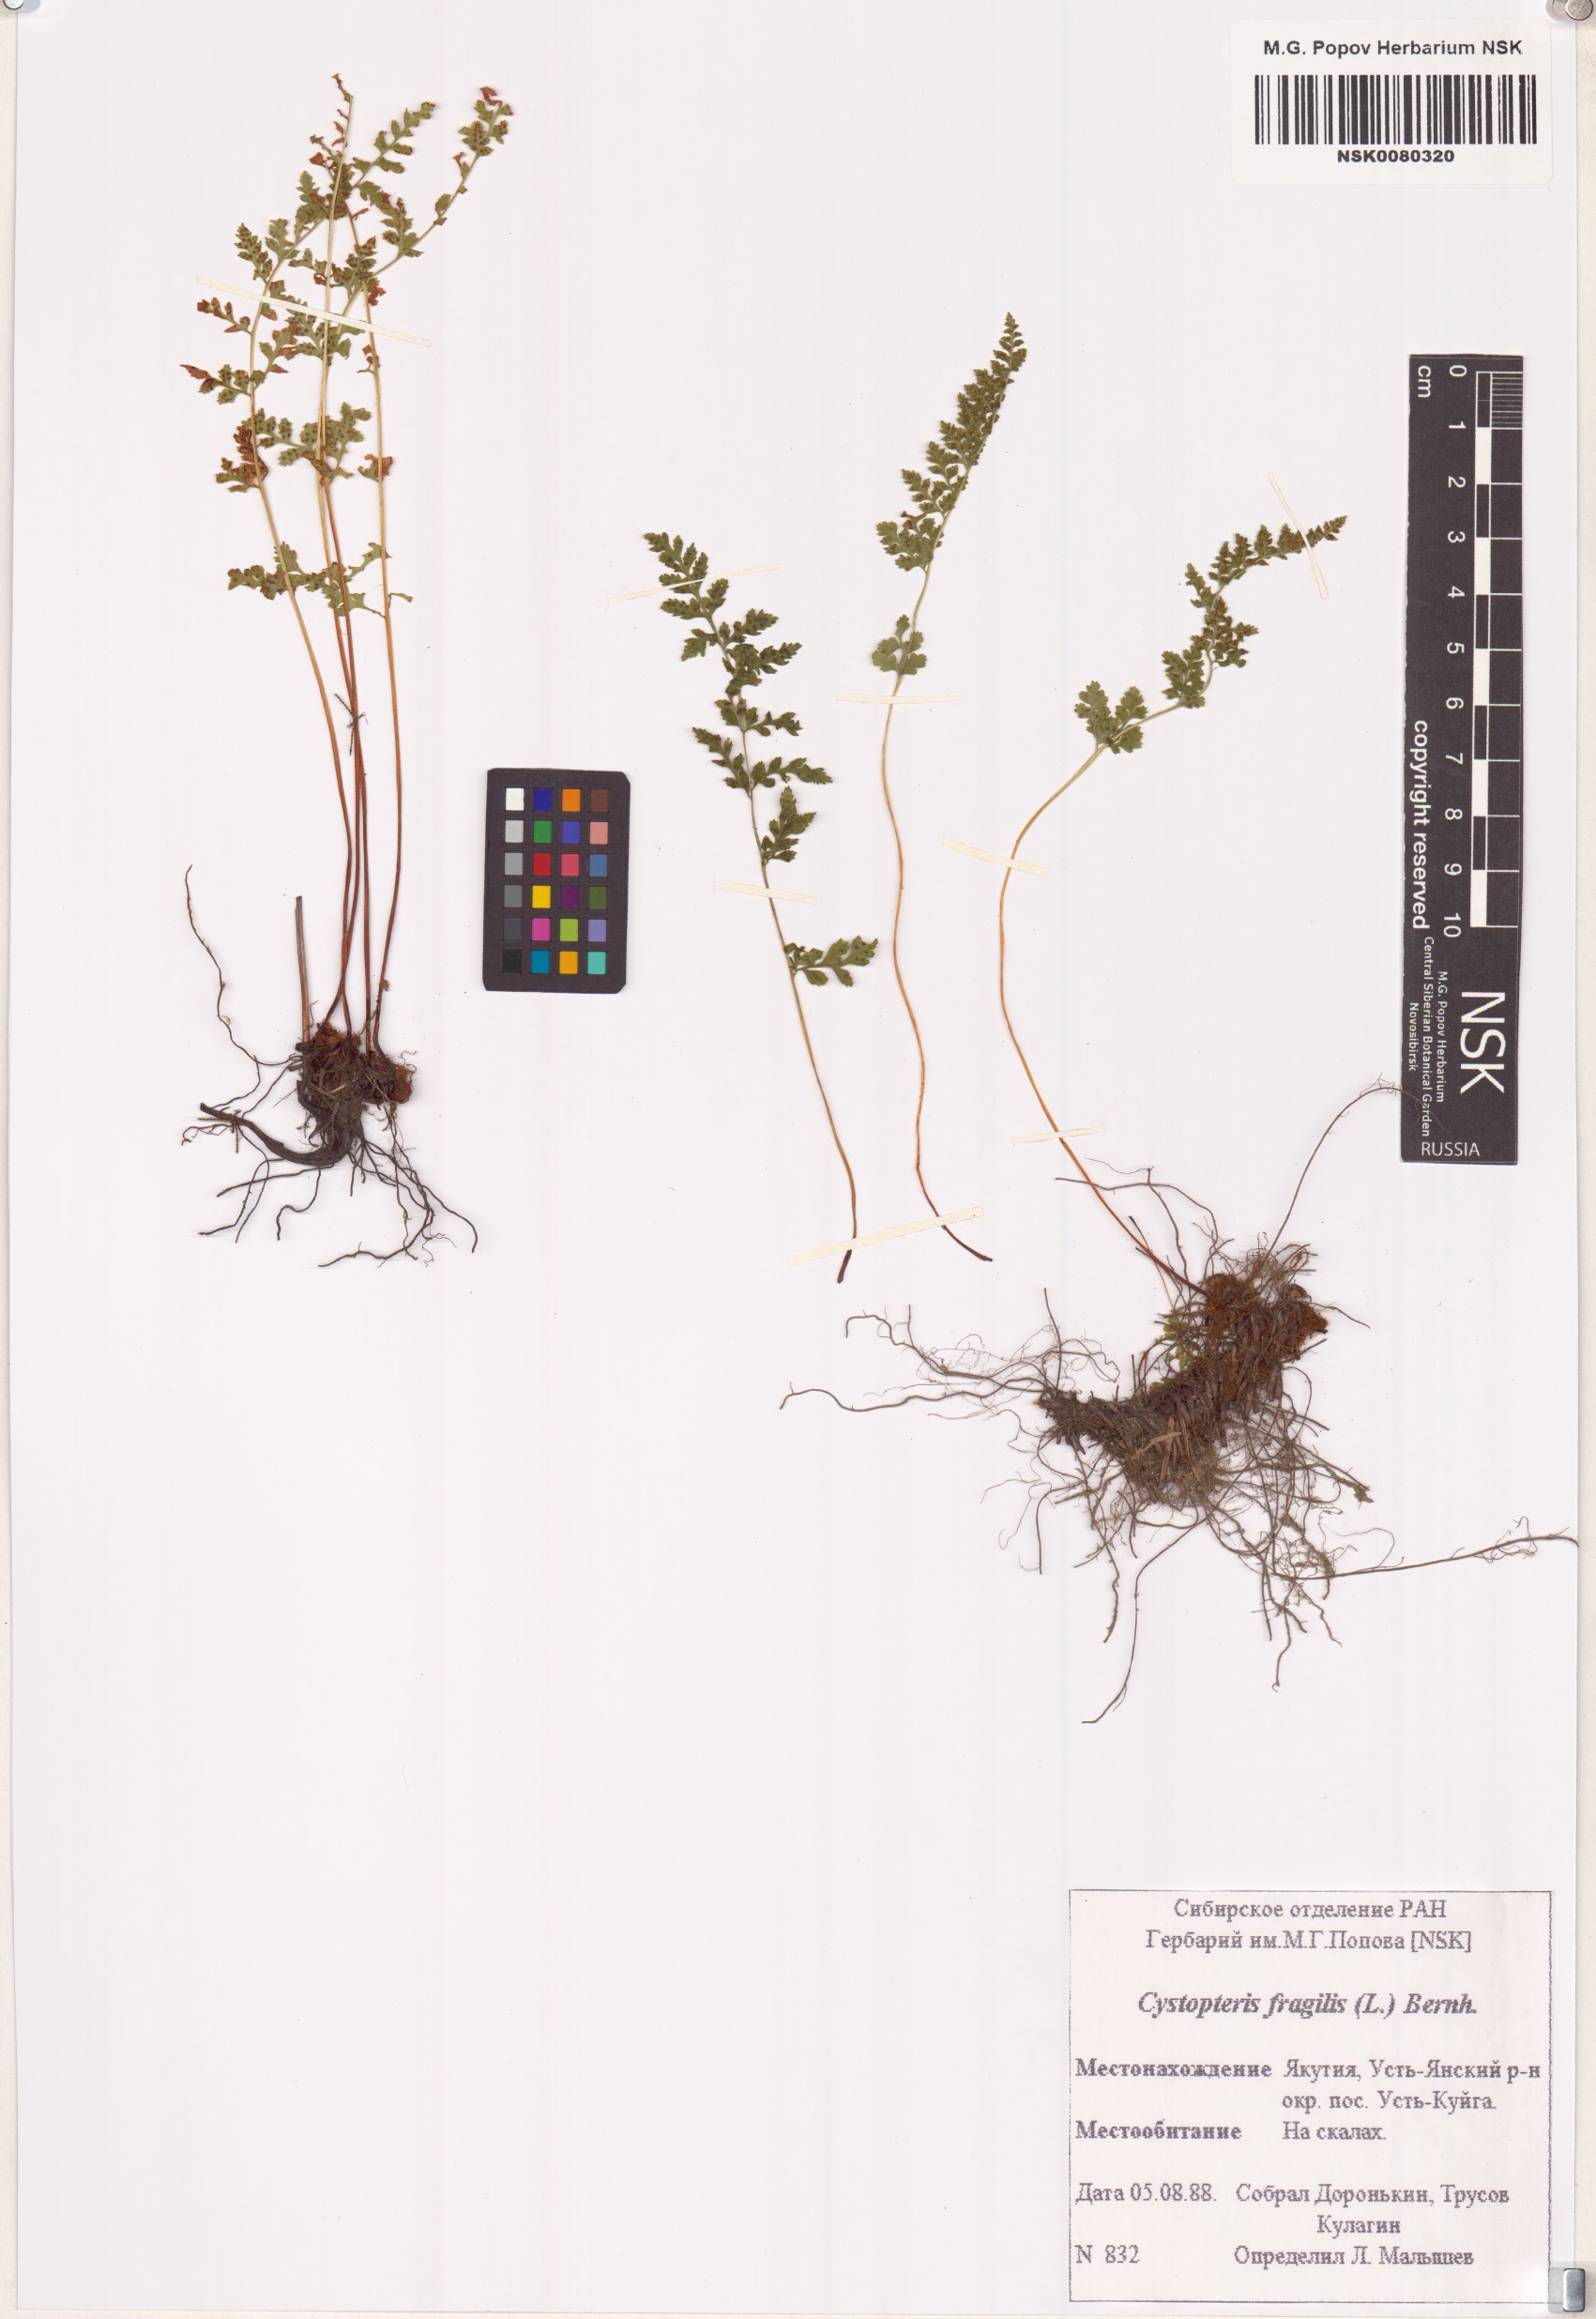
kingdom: Plantae
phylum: Tracheophyta
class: Polypodiopsida
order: Polypodiales
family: Cystopteridaceae
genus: Cystopteris
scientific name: Cystopteris fragilis
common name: Brittle bladder fern
